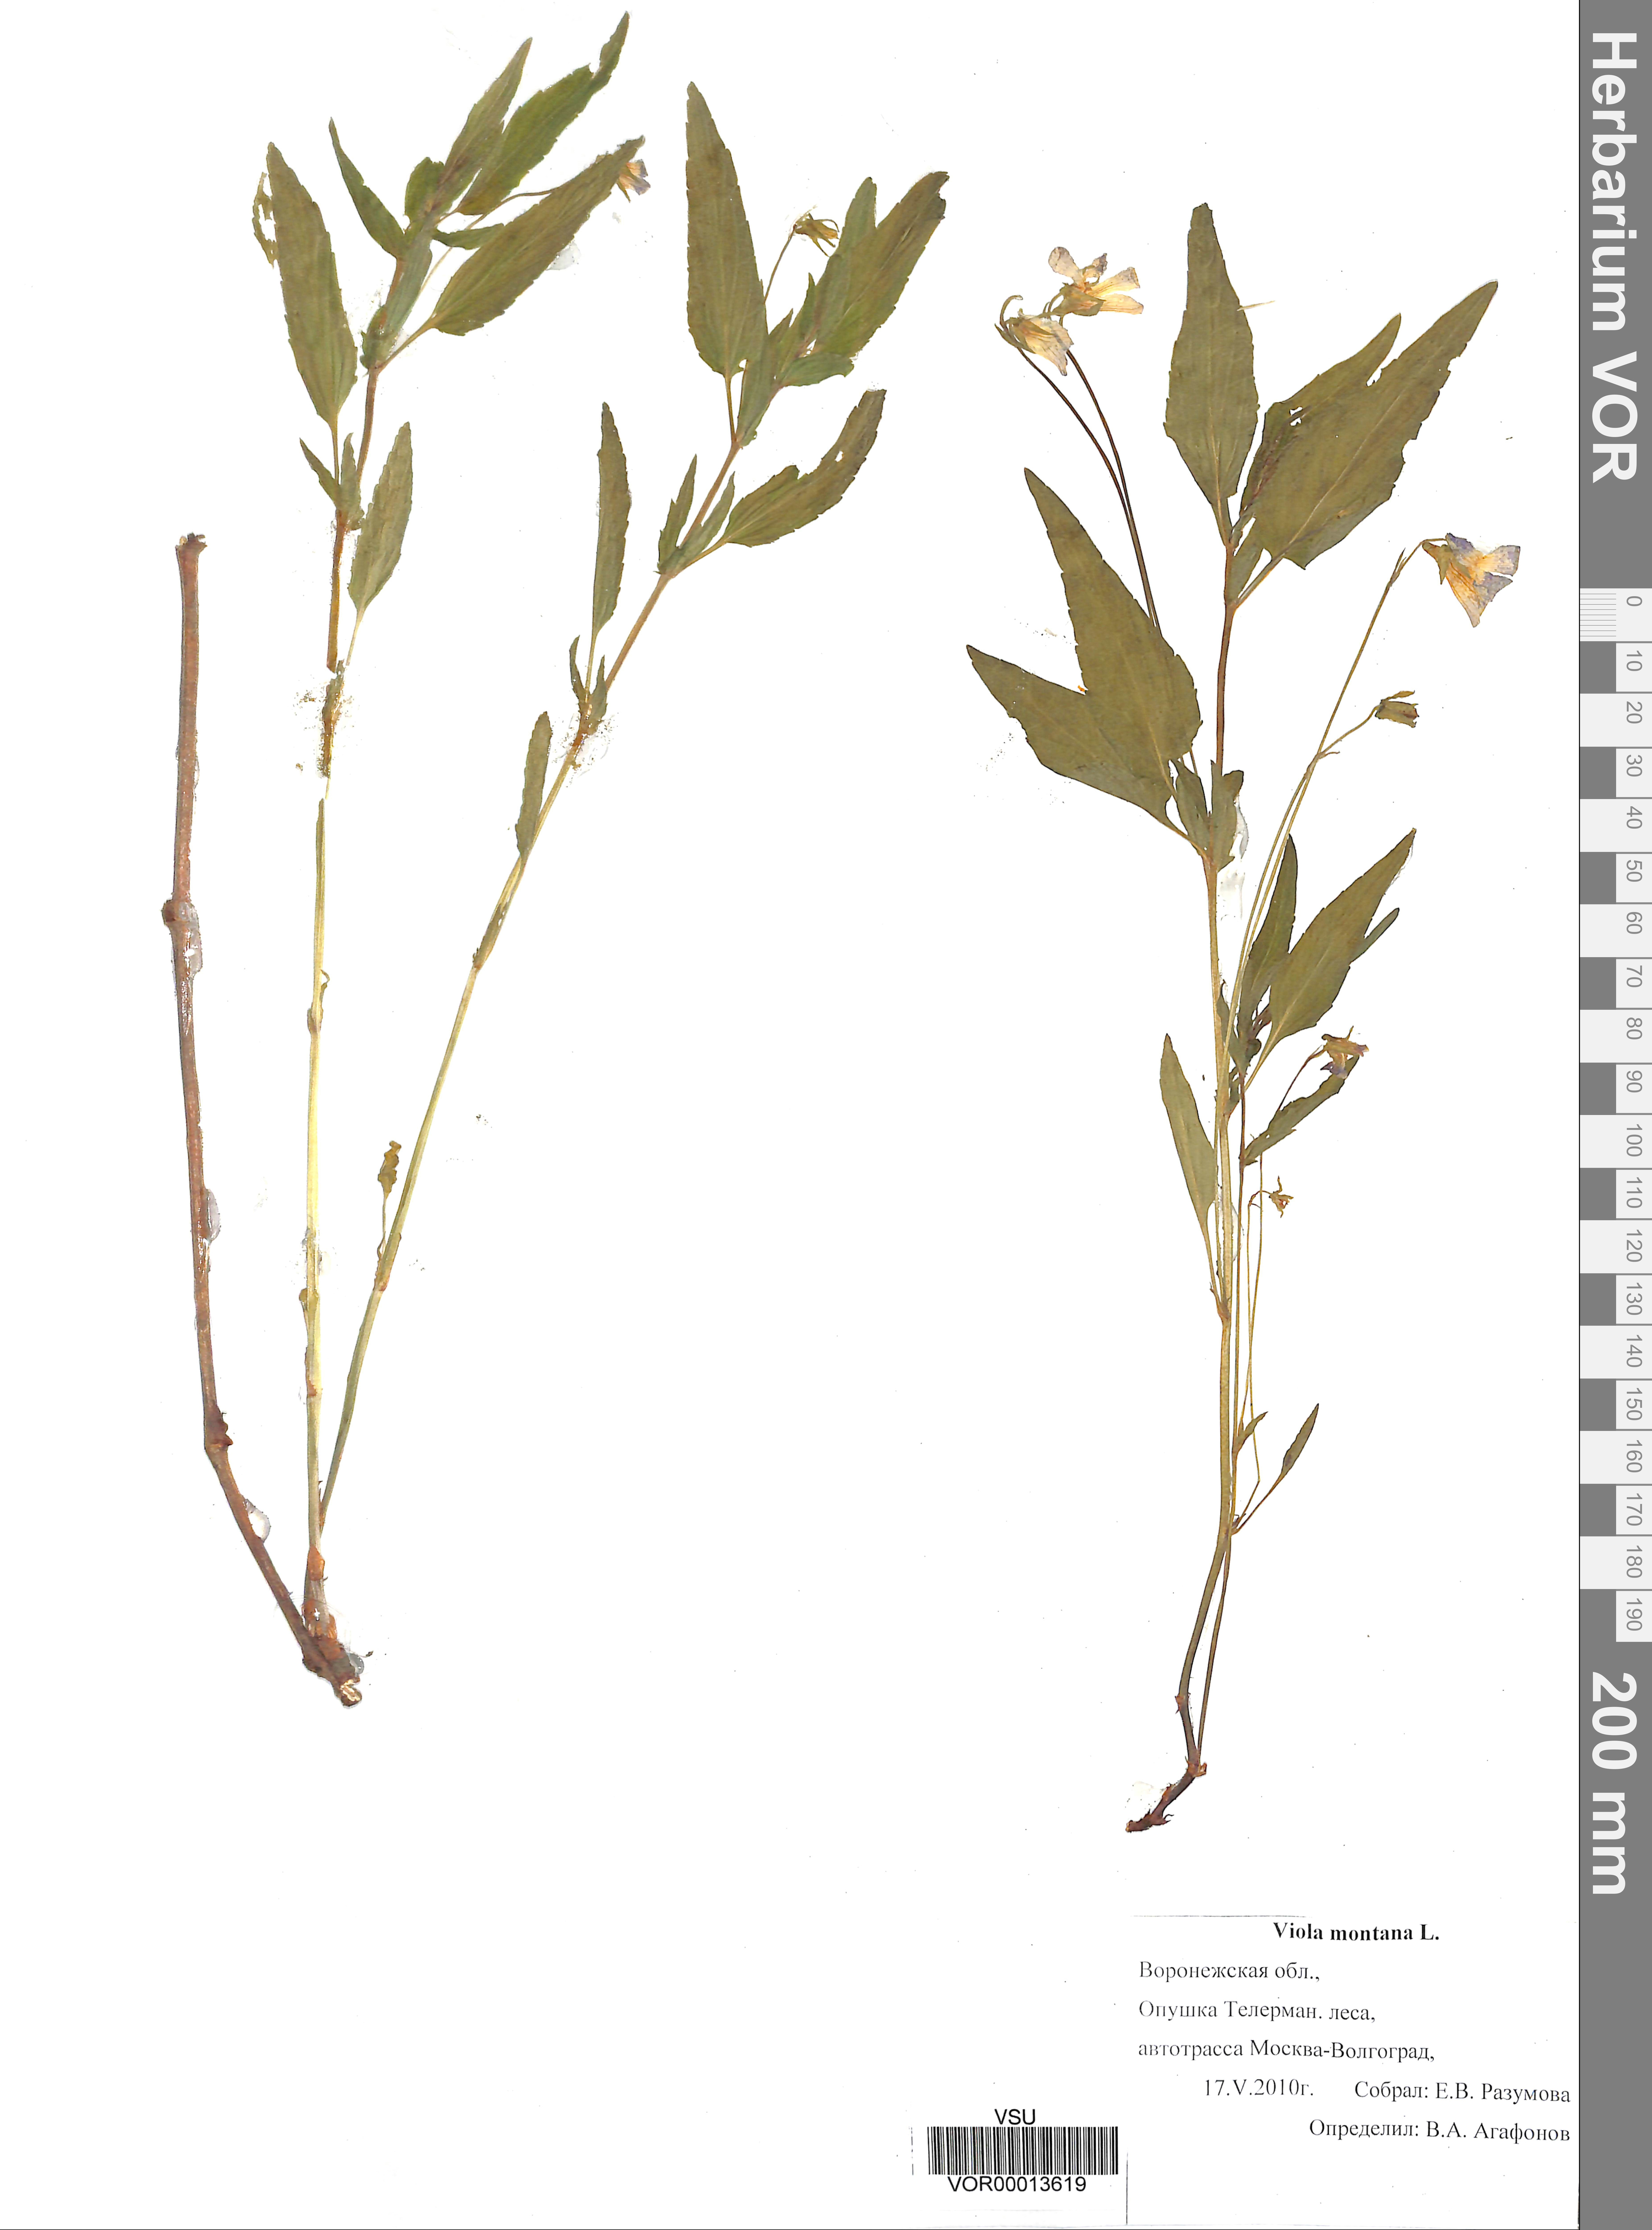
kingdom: Plantae
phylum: Tracheophyta
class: Magnoliopsida
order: Malpighiales
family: Violaceae
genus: Viola
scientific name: Viola ruppii
